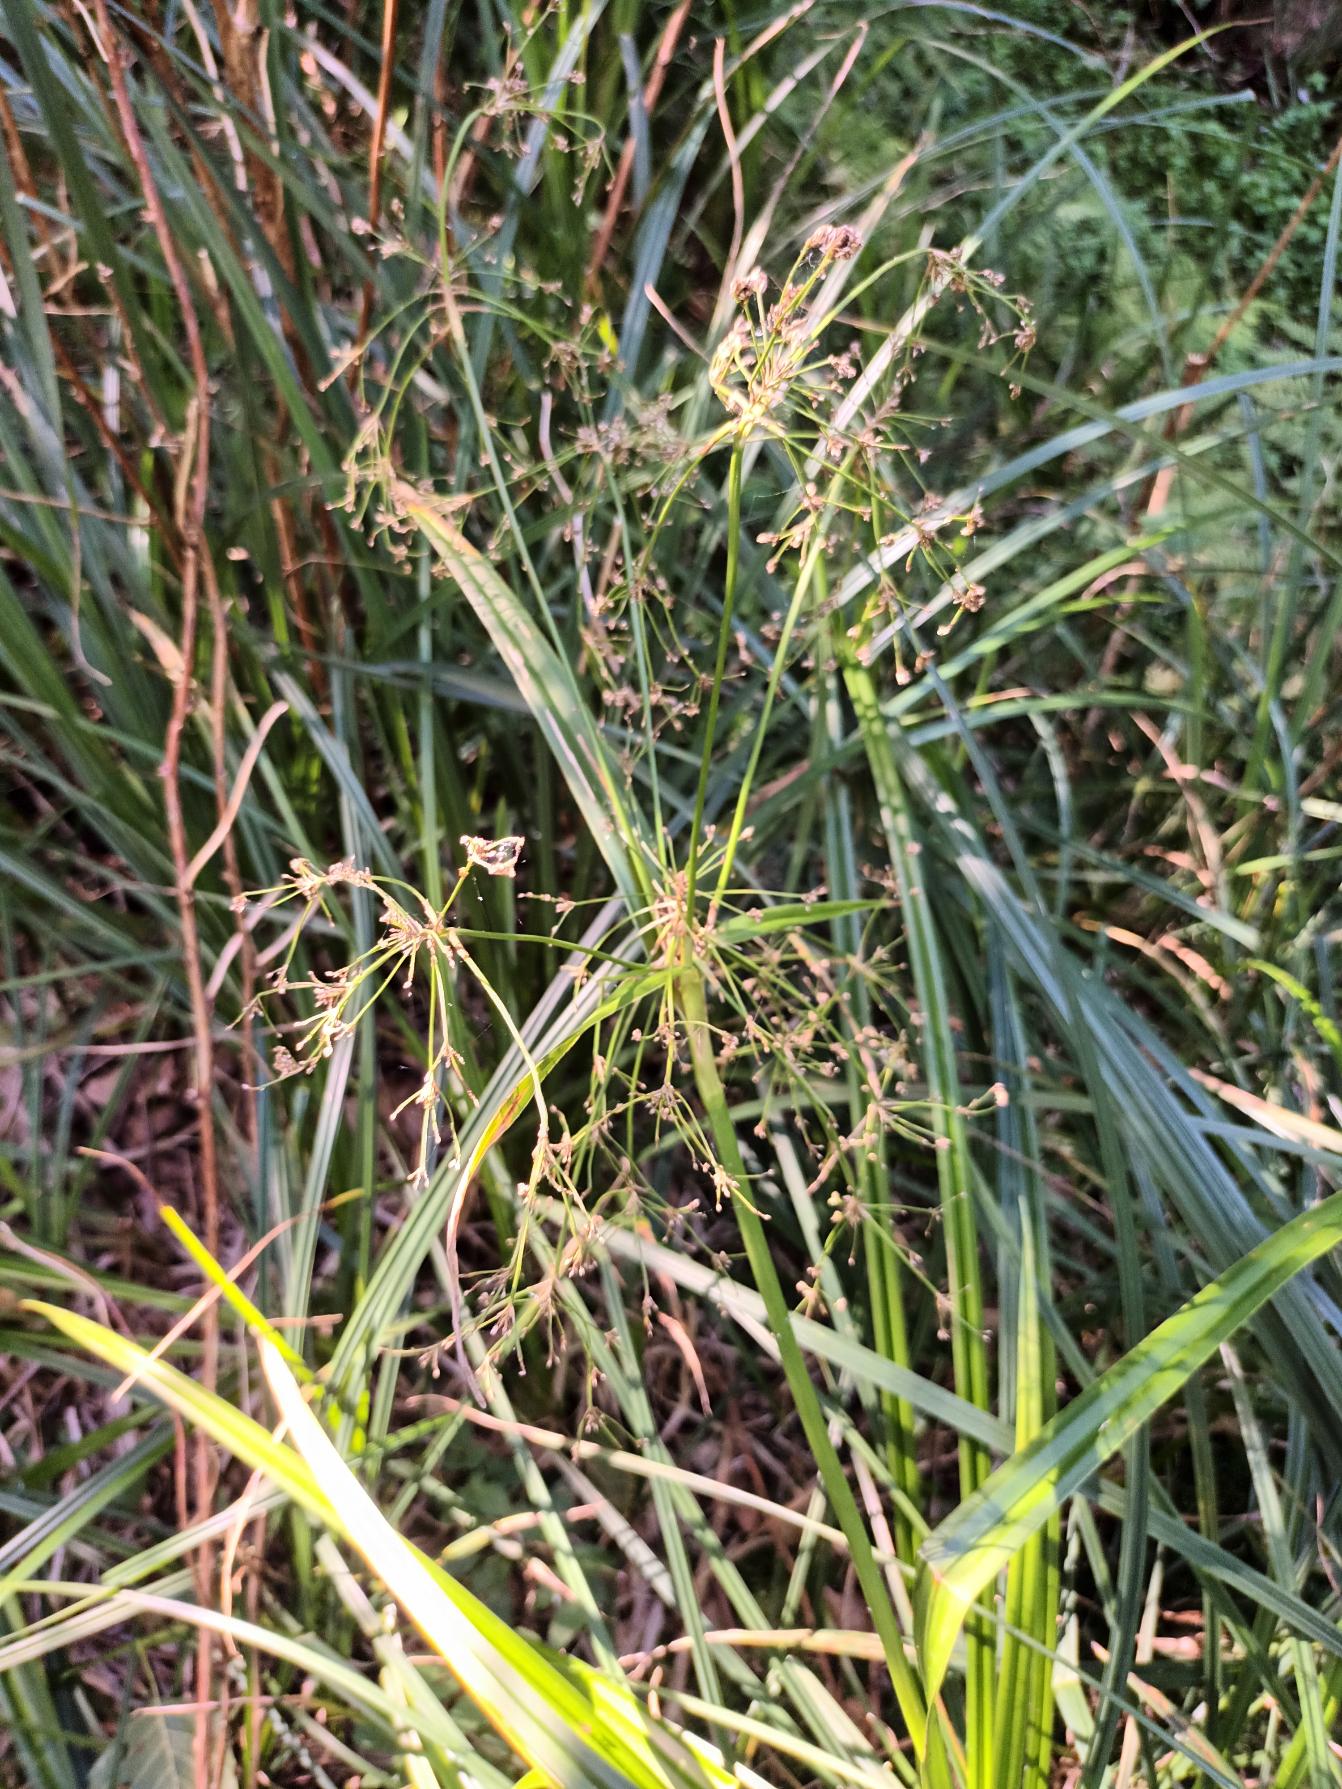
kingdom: Plantae
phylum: Tracheophyta
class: Liliopsida
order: Poales
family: Cyperaceae
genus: Scirpus
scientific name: Scirpus sylvaticus
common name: Skov-kogleaks
